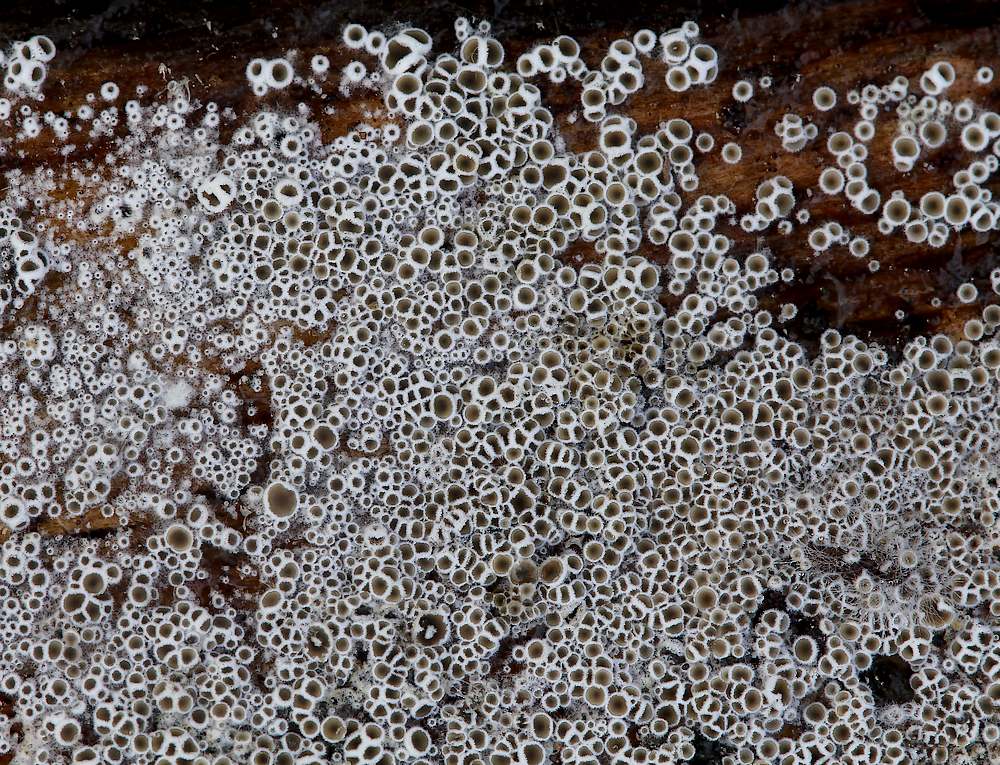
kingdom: Fungi
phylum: Ascomycota
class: Leotiomycetes
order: Helotiales
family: Arachnopezizaceae
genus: Eriopezia
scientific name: Eriopezia caesia
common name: ege-spindskive
